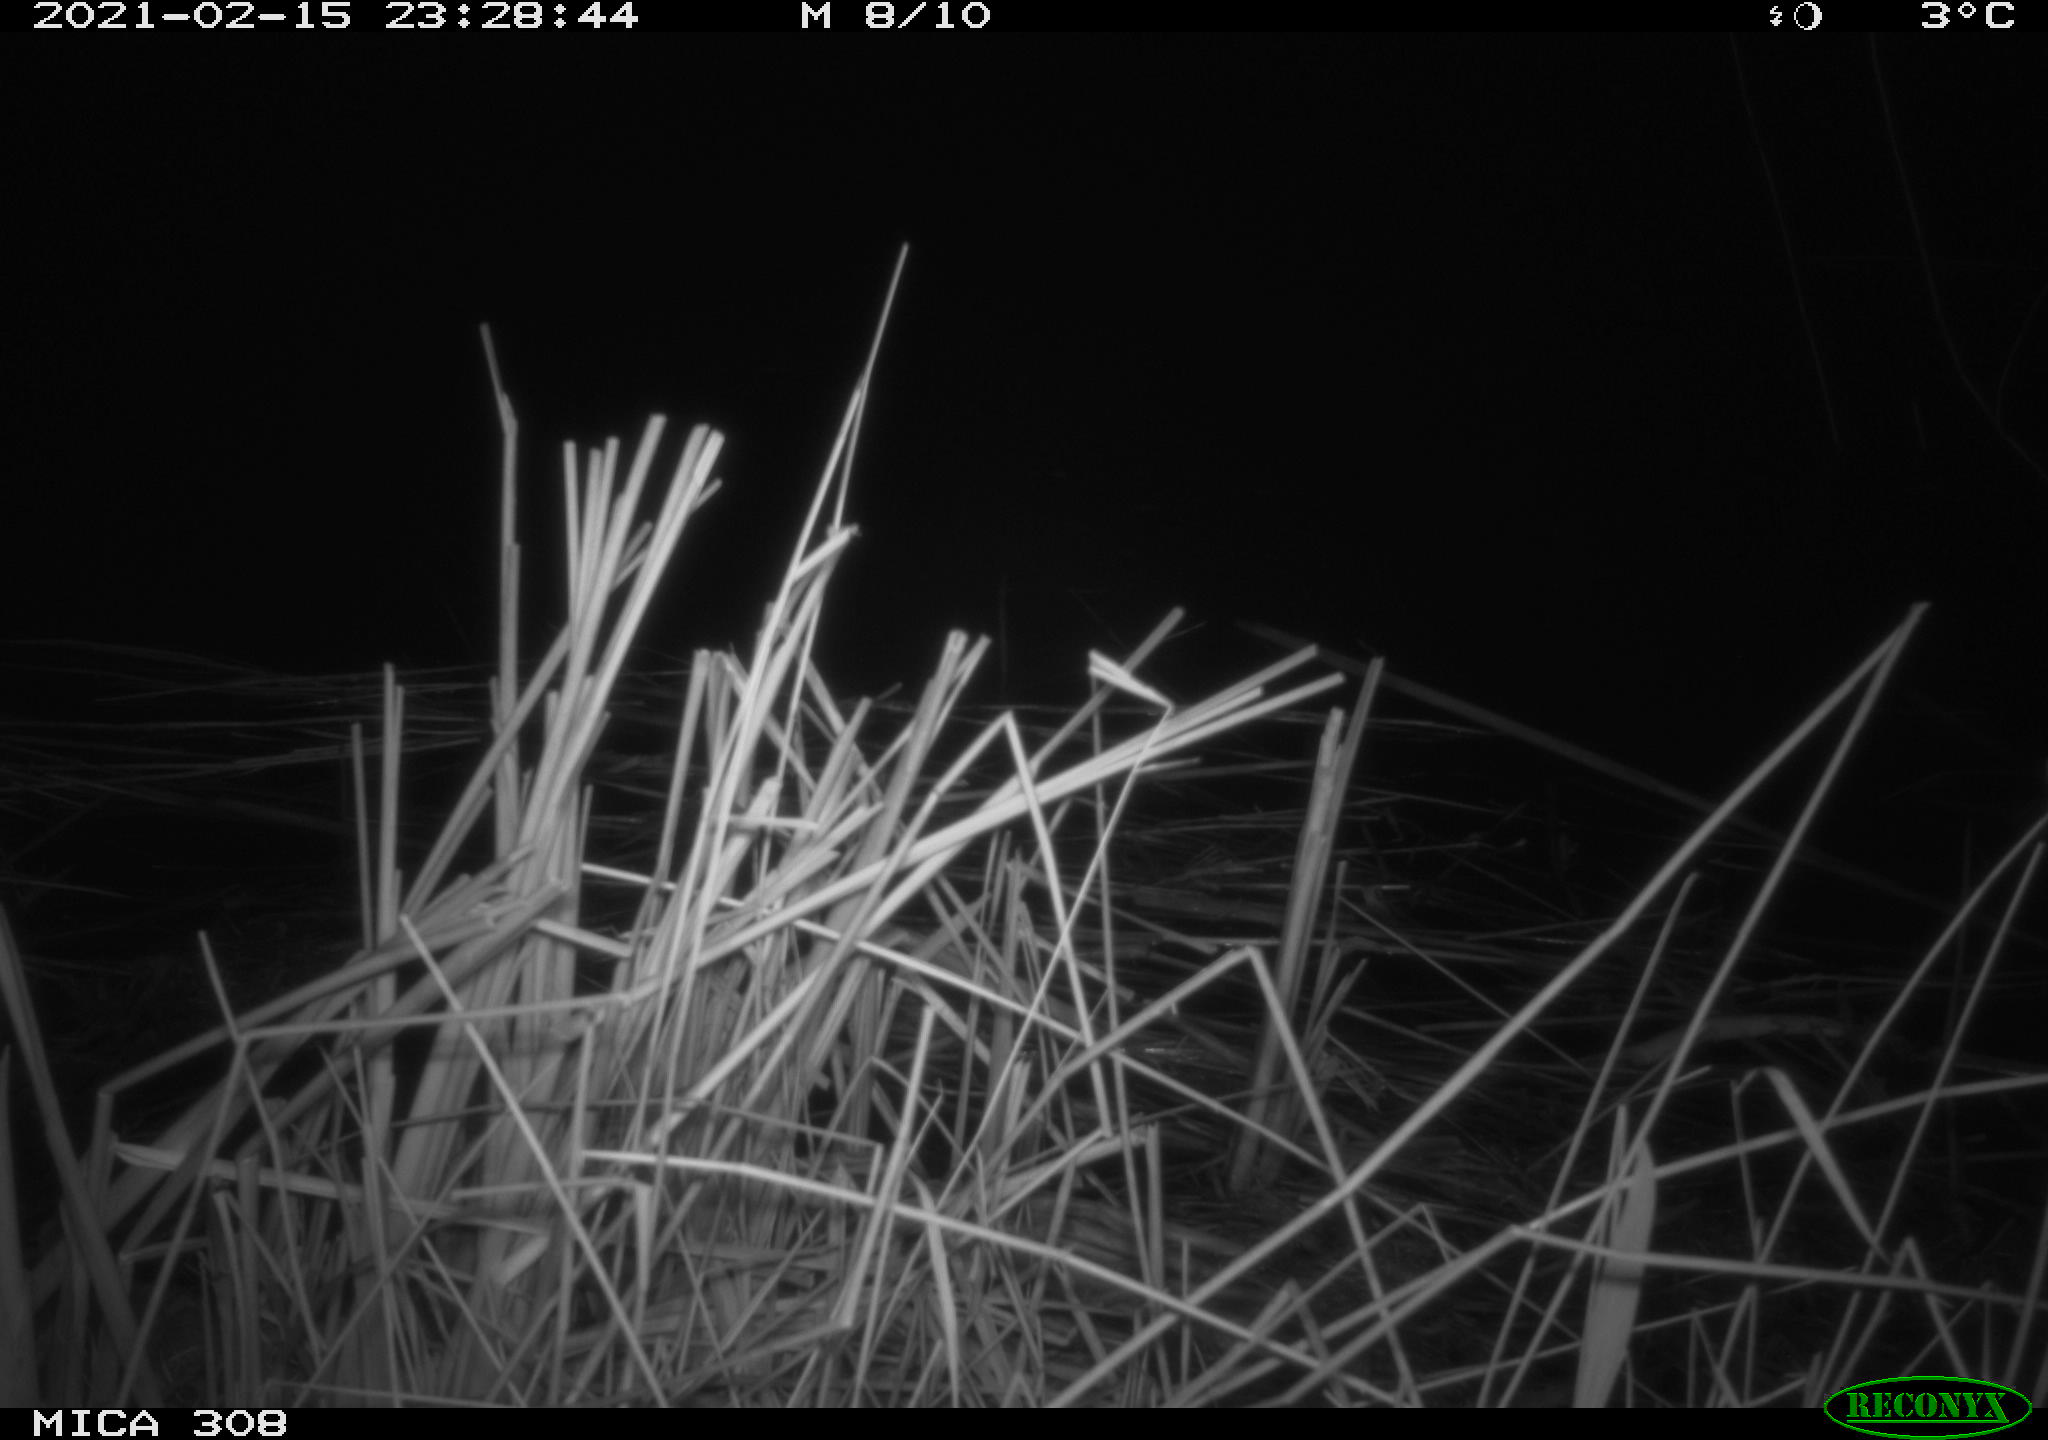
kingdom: Animalia
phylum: Chordata
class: Mammalia
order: Rodentia
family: Muridae
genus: Rattus
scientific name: Rattus norvegicus
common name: Brown rat
